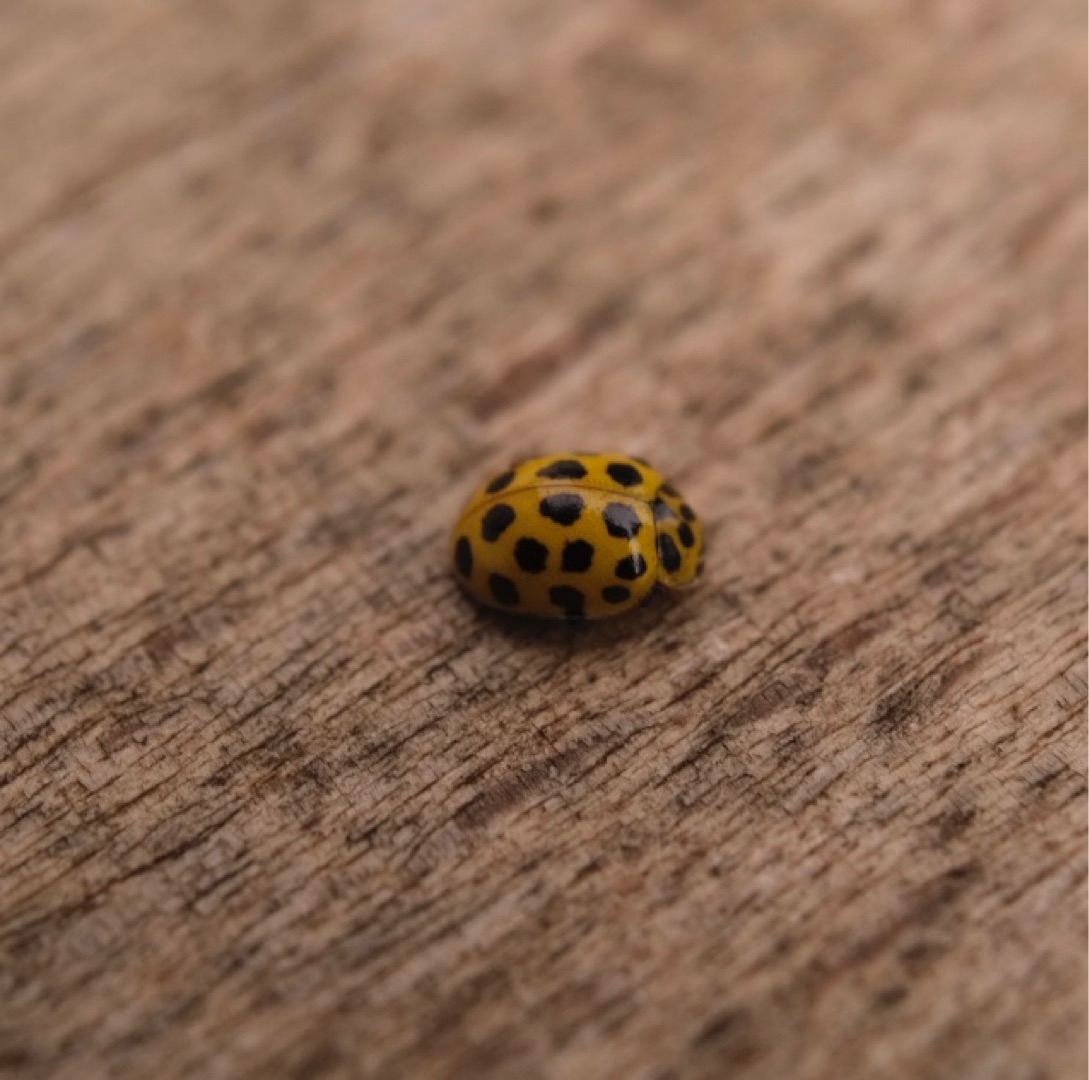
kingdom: Animalia
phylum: Arthropoda
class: Insecta
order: Coleoptera
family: Coccinellidae
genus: Psyllobora
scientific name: Psyllobora vigintiduopunctata
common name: Toogtyveplettet mariehøne
